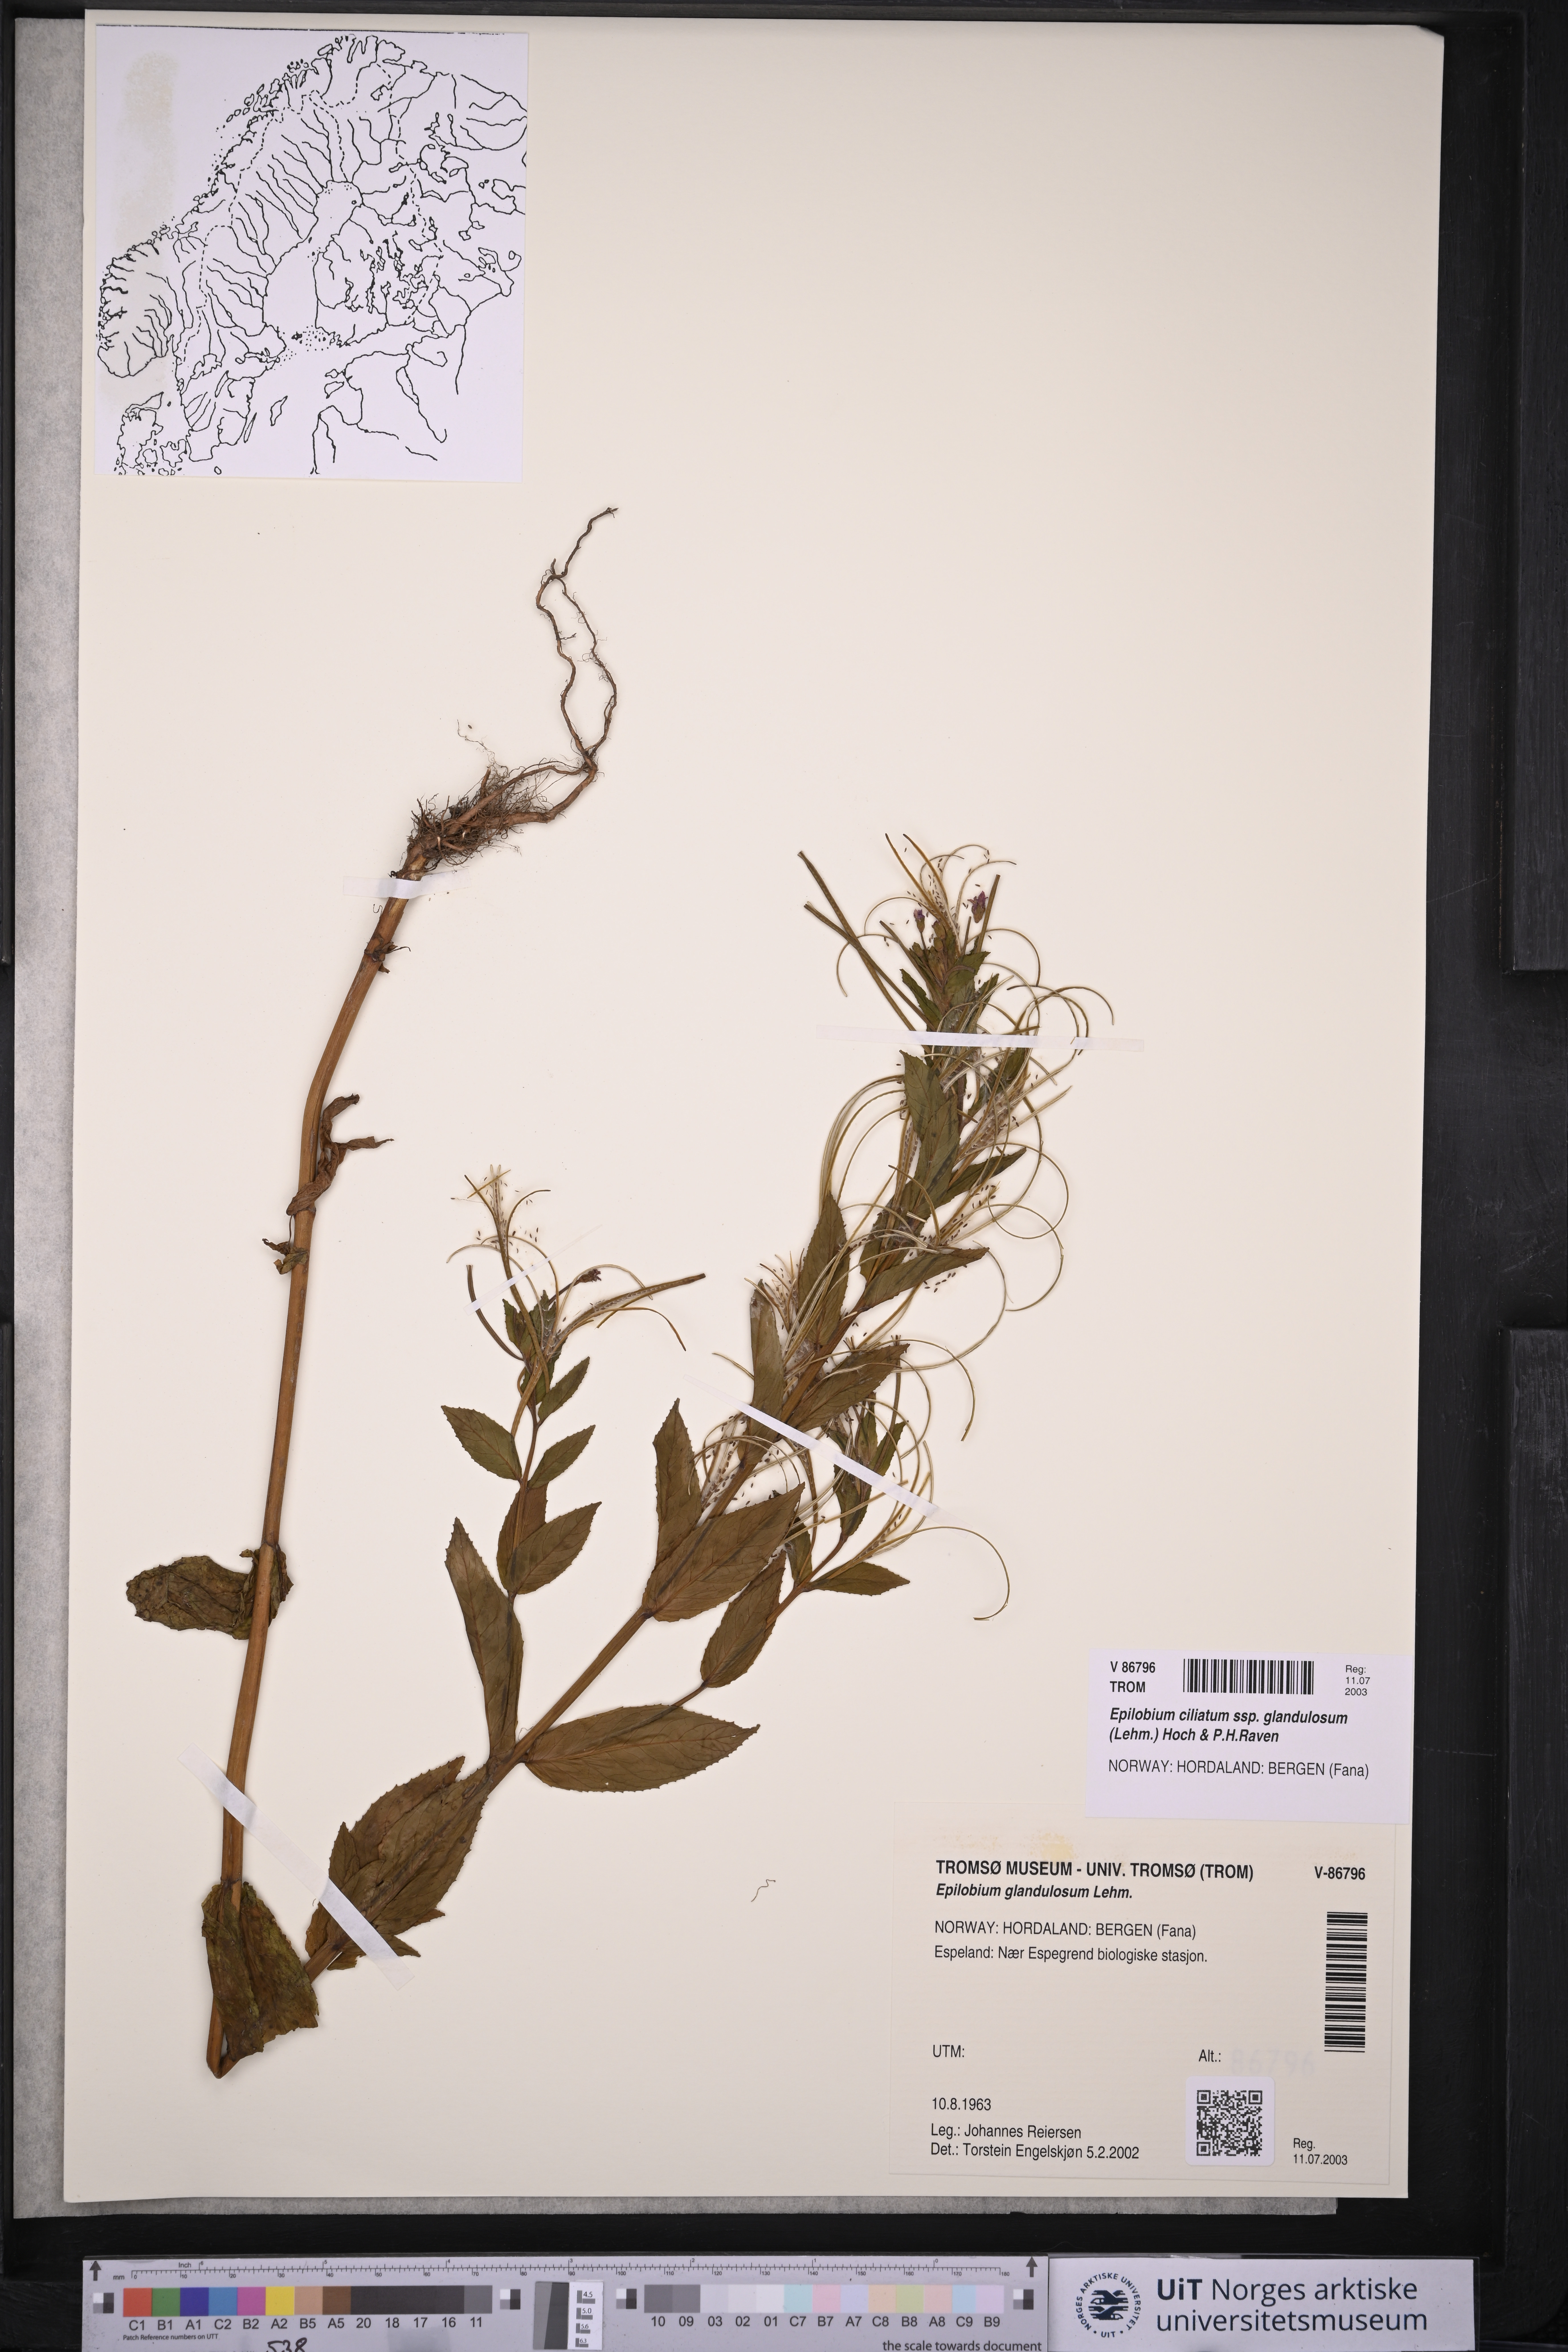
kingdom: Plantae
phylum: Tracheophyta
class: Magnoliopsida
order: Myrtales
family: Onagraceae
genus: Epilobium
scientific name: Epilobium ciliatum
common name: American willowherb
